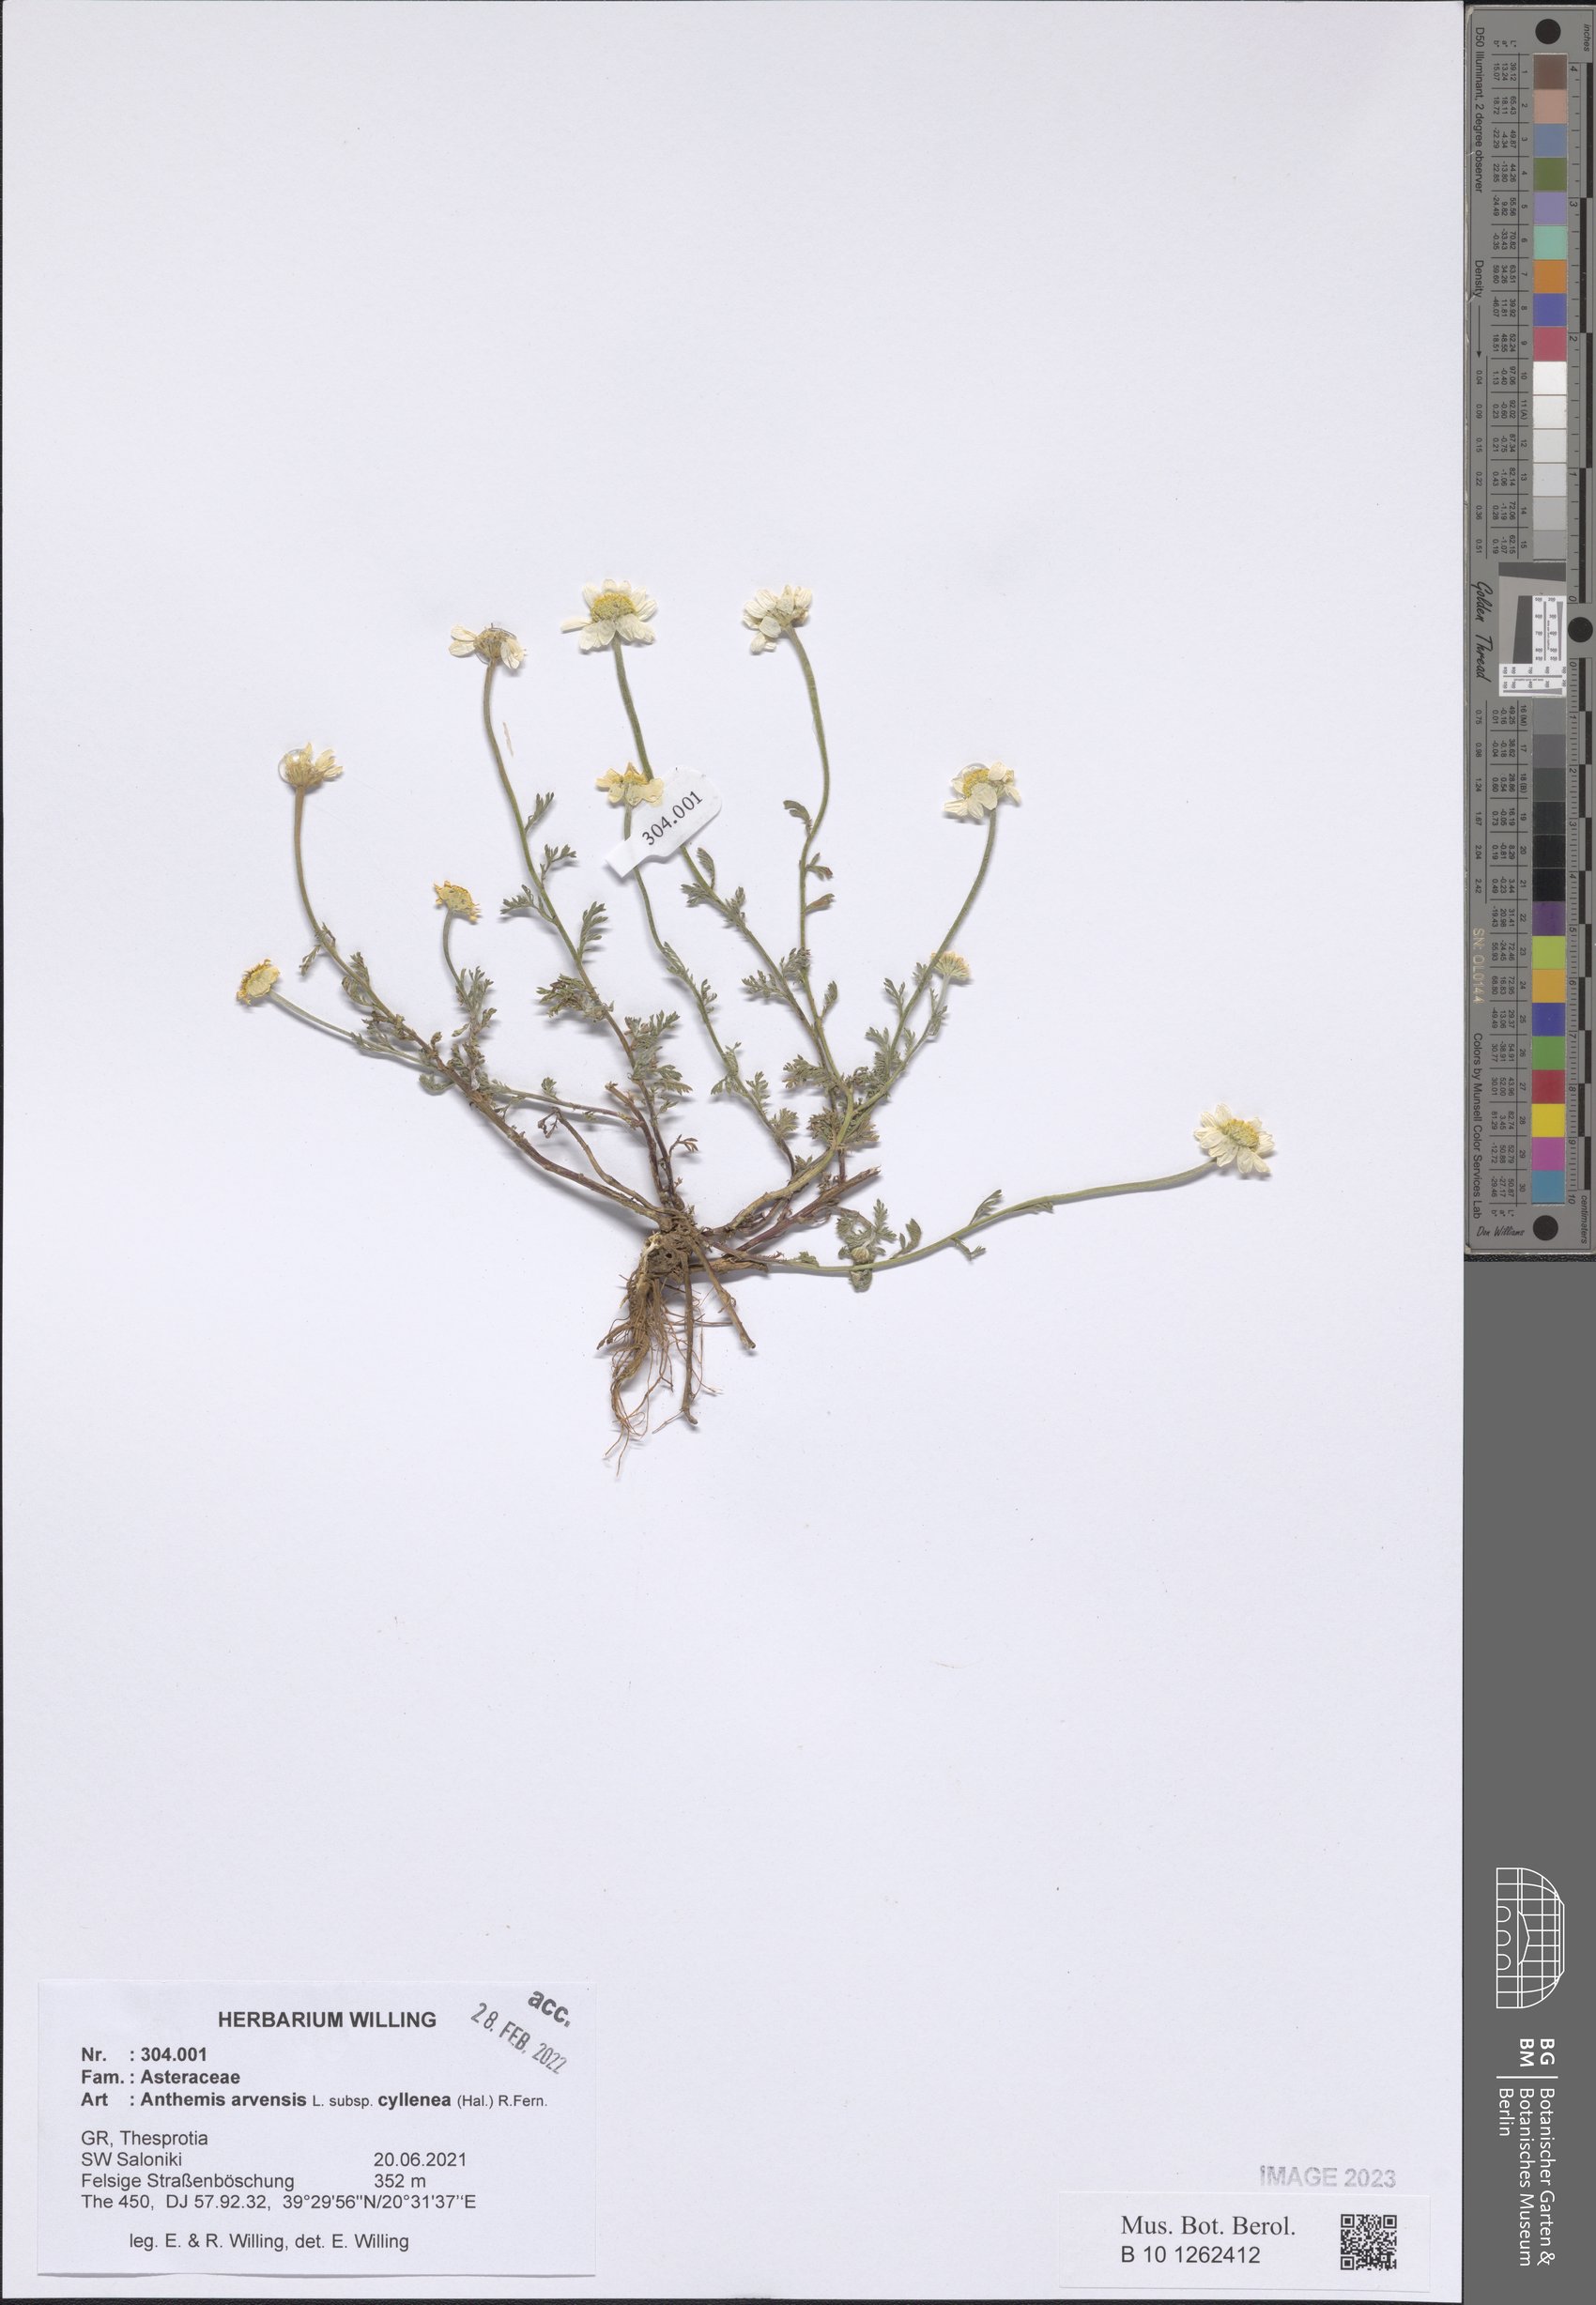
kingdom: Plantae
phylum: Tracheophyta
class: Magnoliopsida
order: Asterales
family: Asteraceae
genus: Anthemis
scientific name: Anthemis arvensis
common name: Corn chamomile
